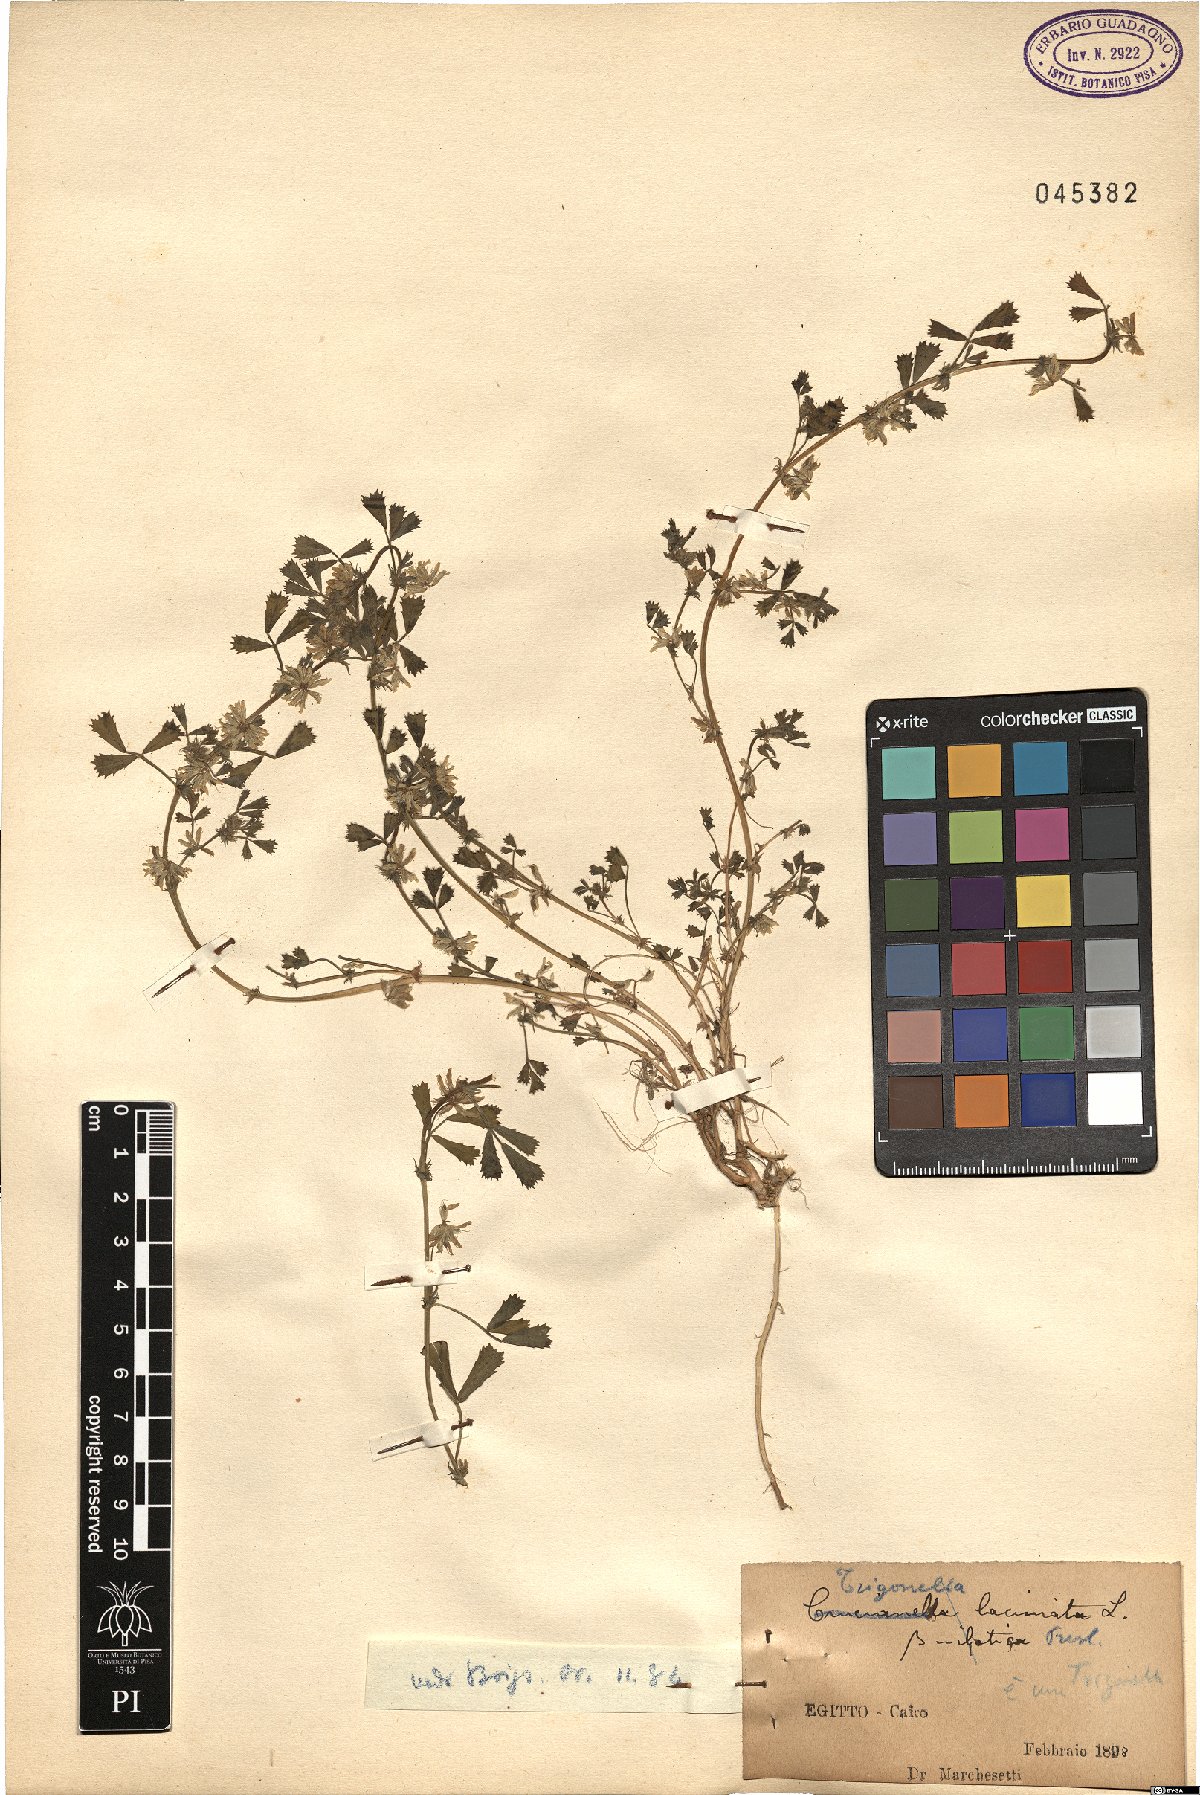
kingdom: Plantae
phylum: Tracheophyta
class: Magnoliopsida
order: Fabales
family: Fabaceae
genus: Trigonella
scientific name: Trigonella
